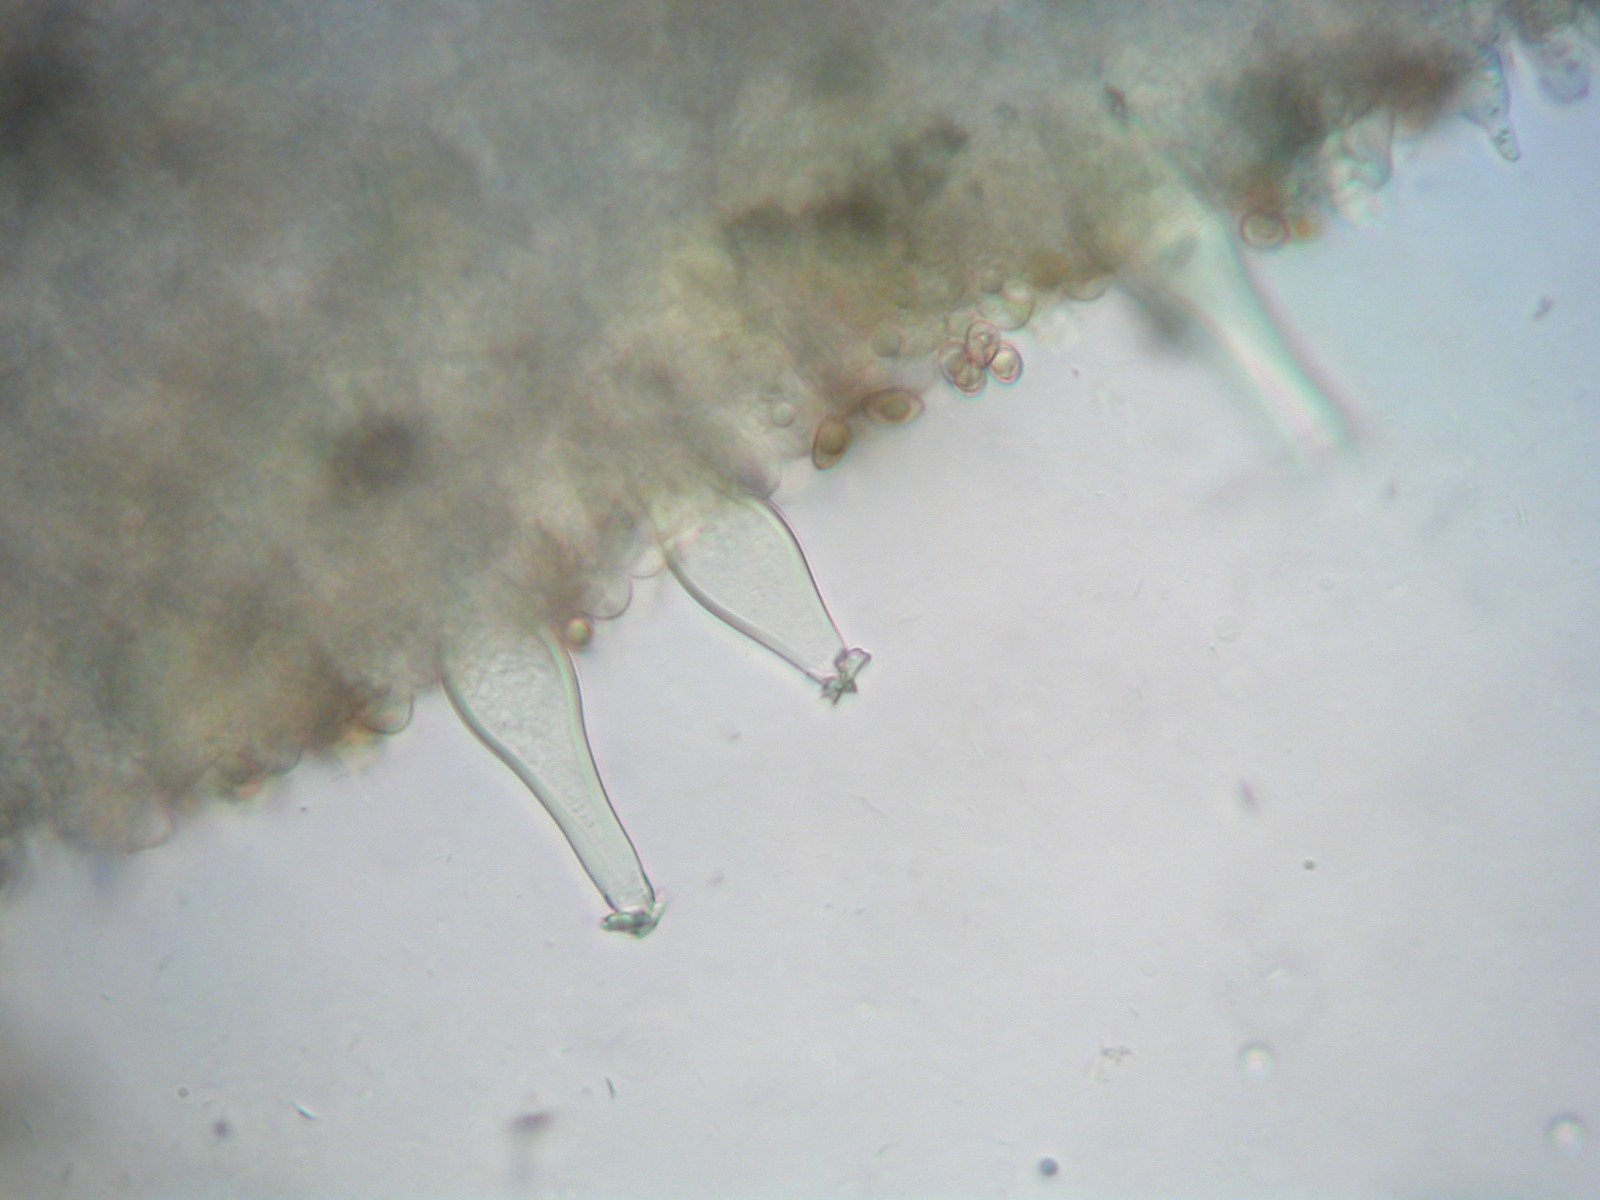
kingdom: Fungi
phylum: Basidiomycota
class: Agaricomycetes
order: Agaricales
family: Inocybaceae
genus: Inocybe
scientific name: Inocybe
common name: trævlhat
